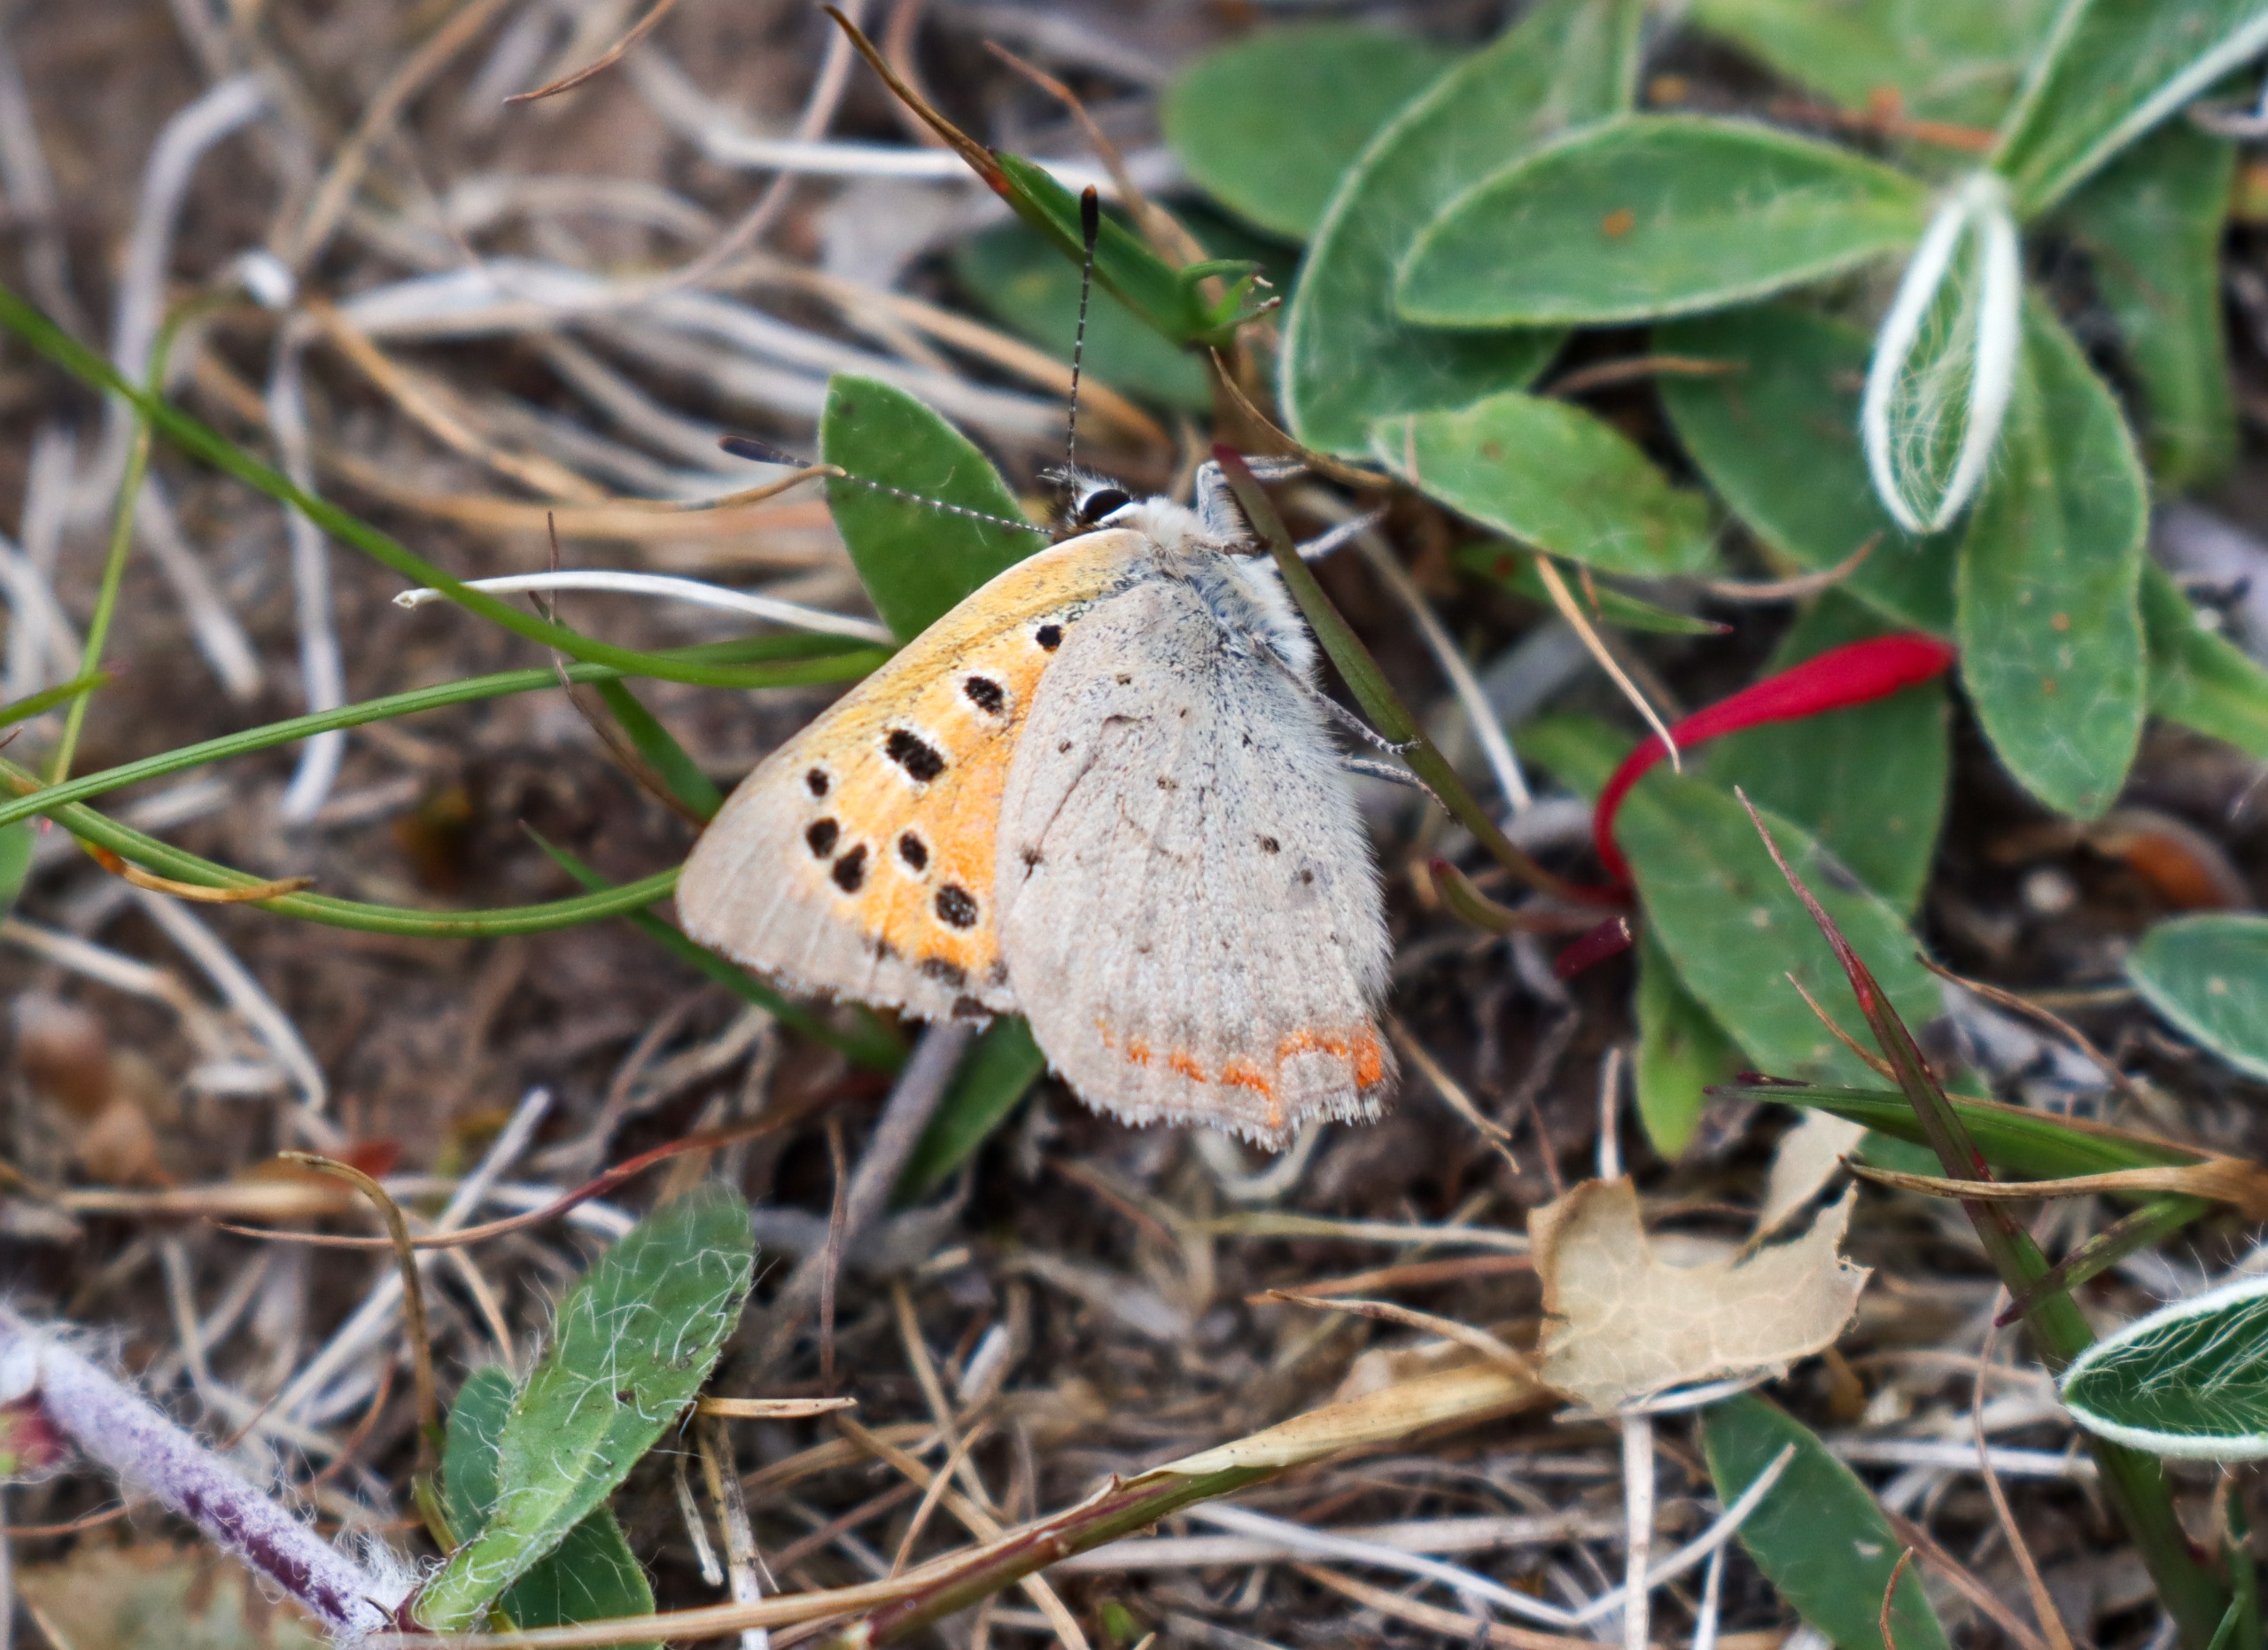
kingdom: Animalia
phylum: Arthropoda
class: Insecta
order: Lepidoptera
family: Lycaenidae
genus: Lycaena
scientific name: Lycaena phlaeas
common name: Lille ildfugl
